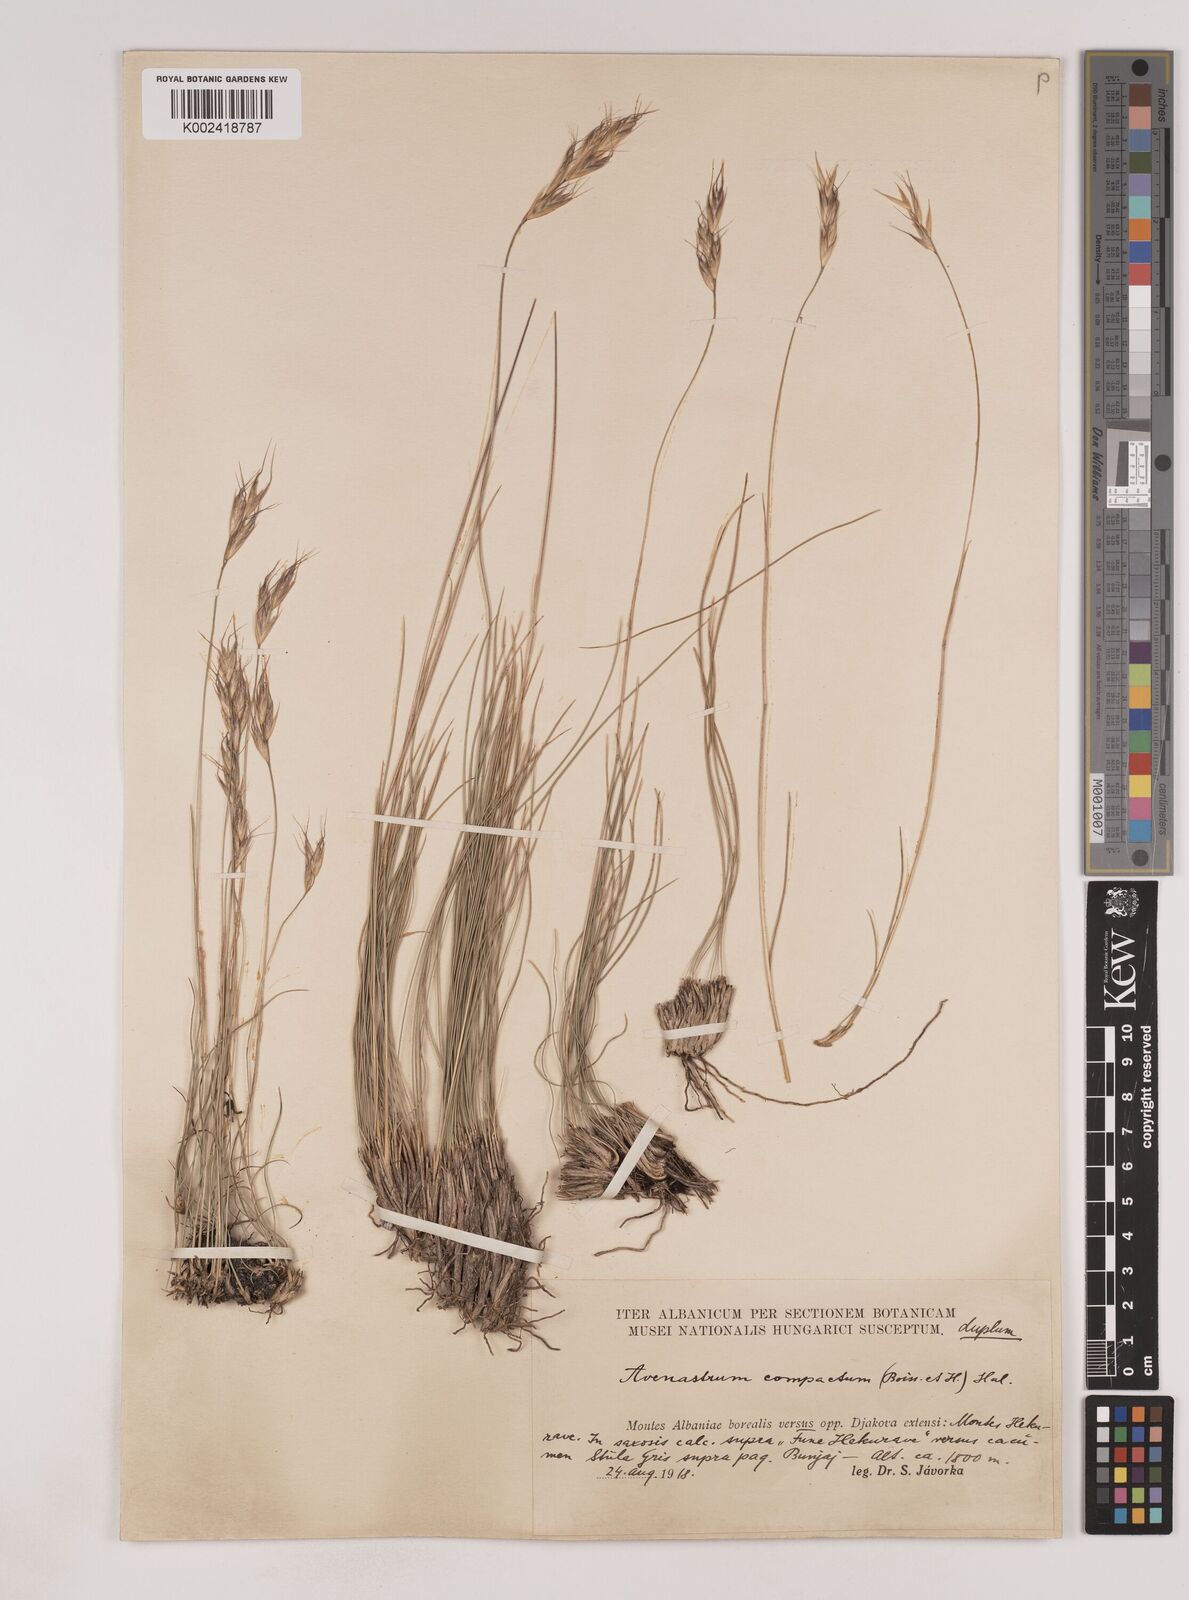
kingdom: Plantae
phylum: Tracheophyta
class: Liliopsida
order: Poales
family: Poaceae
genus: Danthoniastrum
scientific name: Danthoniastrum compactum
